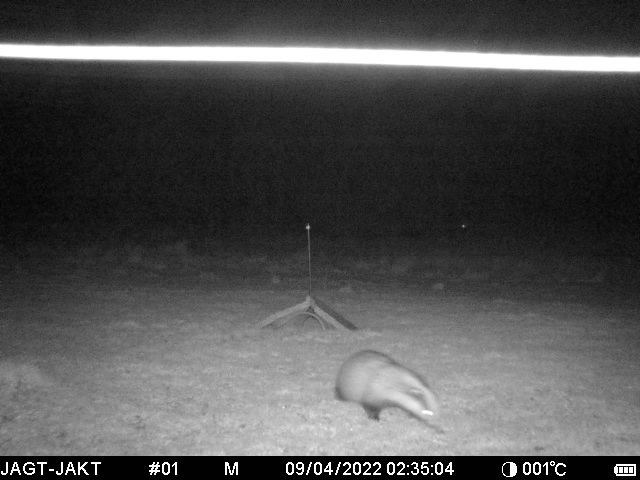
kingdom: Animalia
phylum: Chordata
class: Mammalia
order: Carnivora
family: Mustelidae
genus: Meles
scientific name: Meles meles
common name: Grævling
